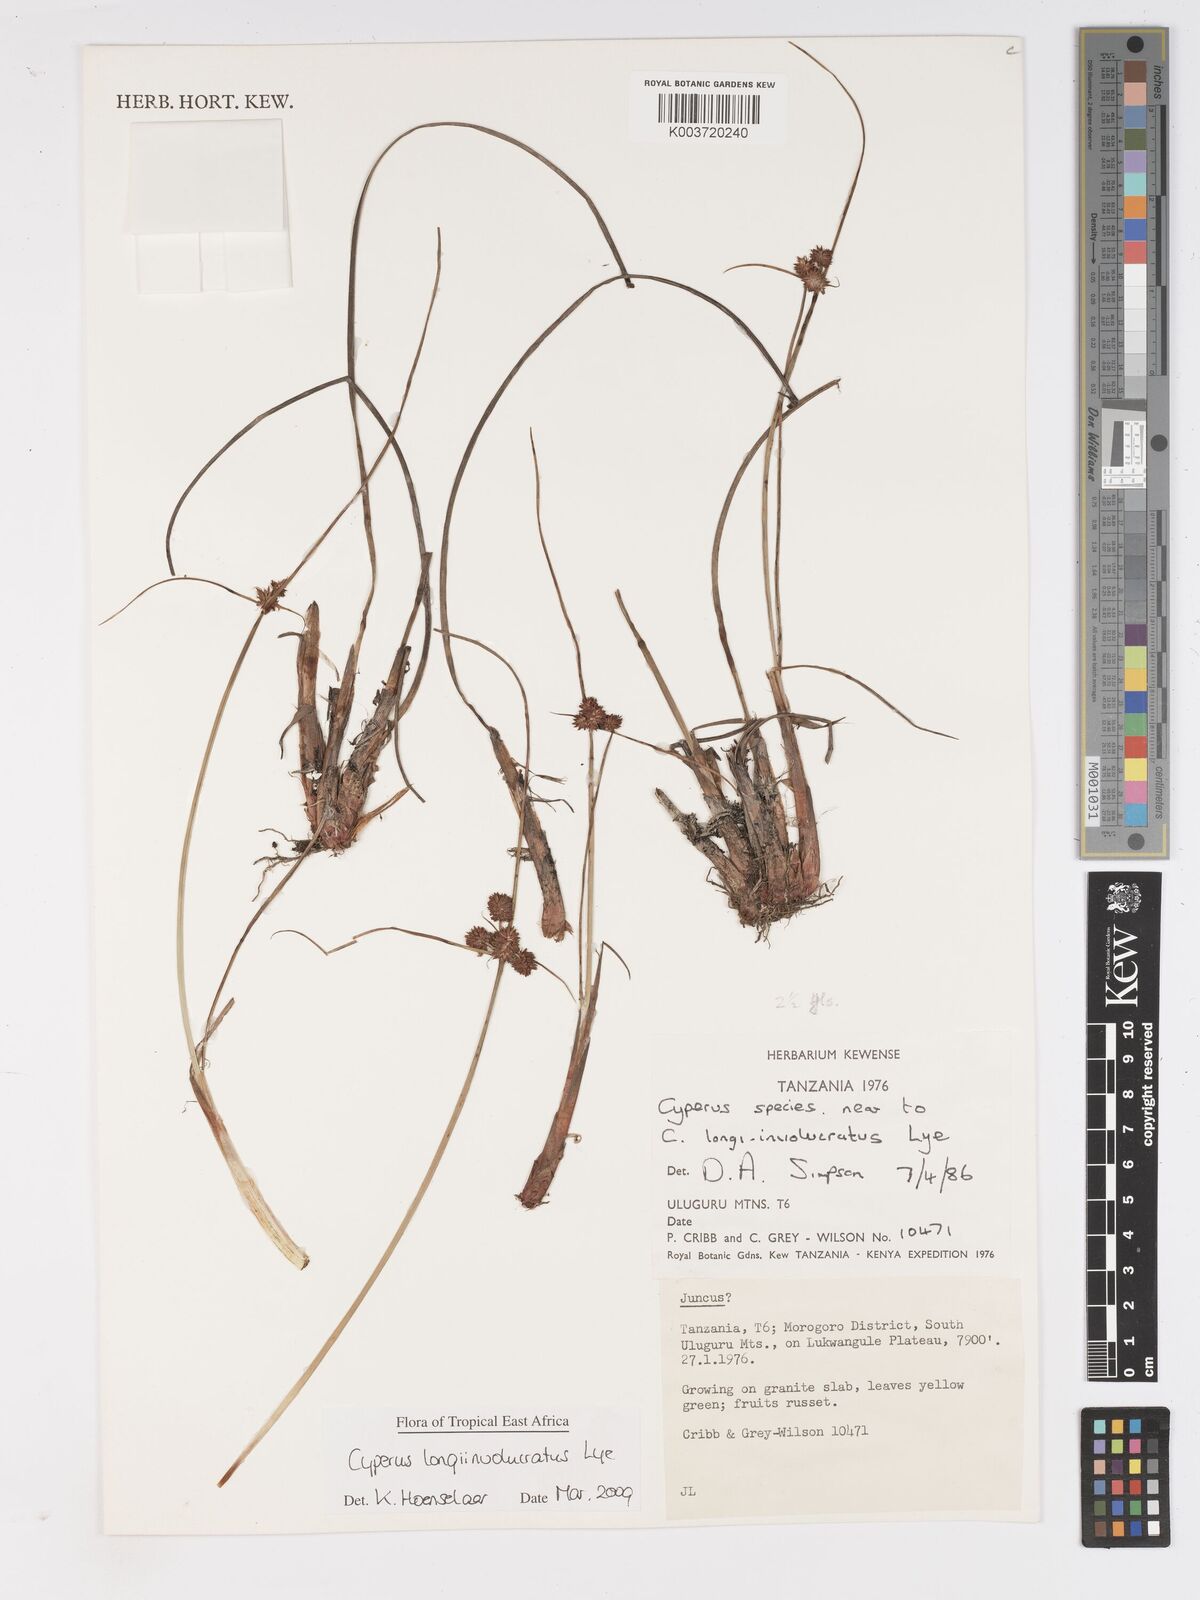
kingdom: Plantae
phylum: Tracheophyta
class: Liliopsida
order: Poales
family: Cyperaceae
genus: Cyperus
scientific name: Cyperus longi-involucratus
